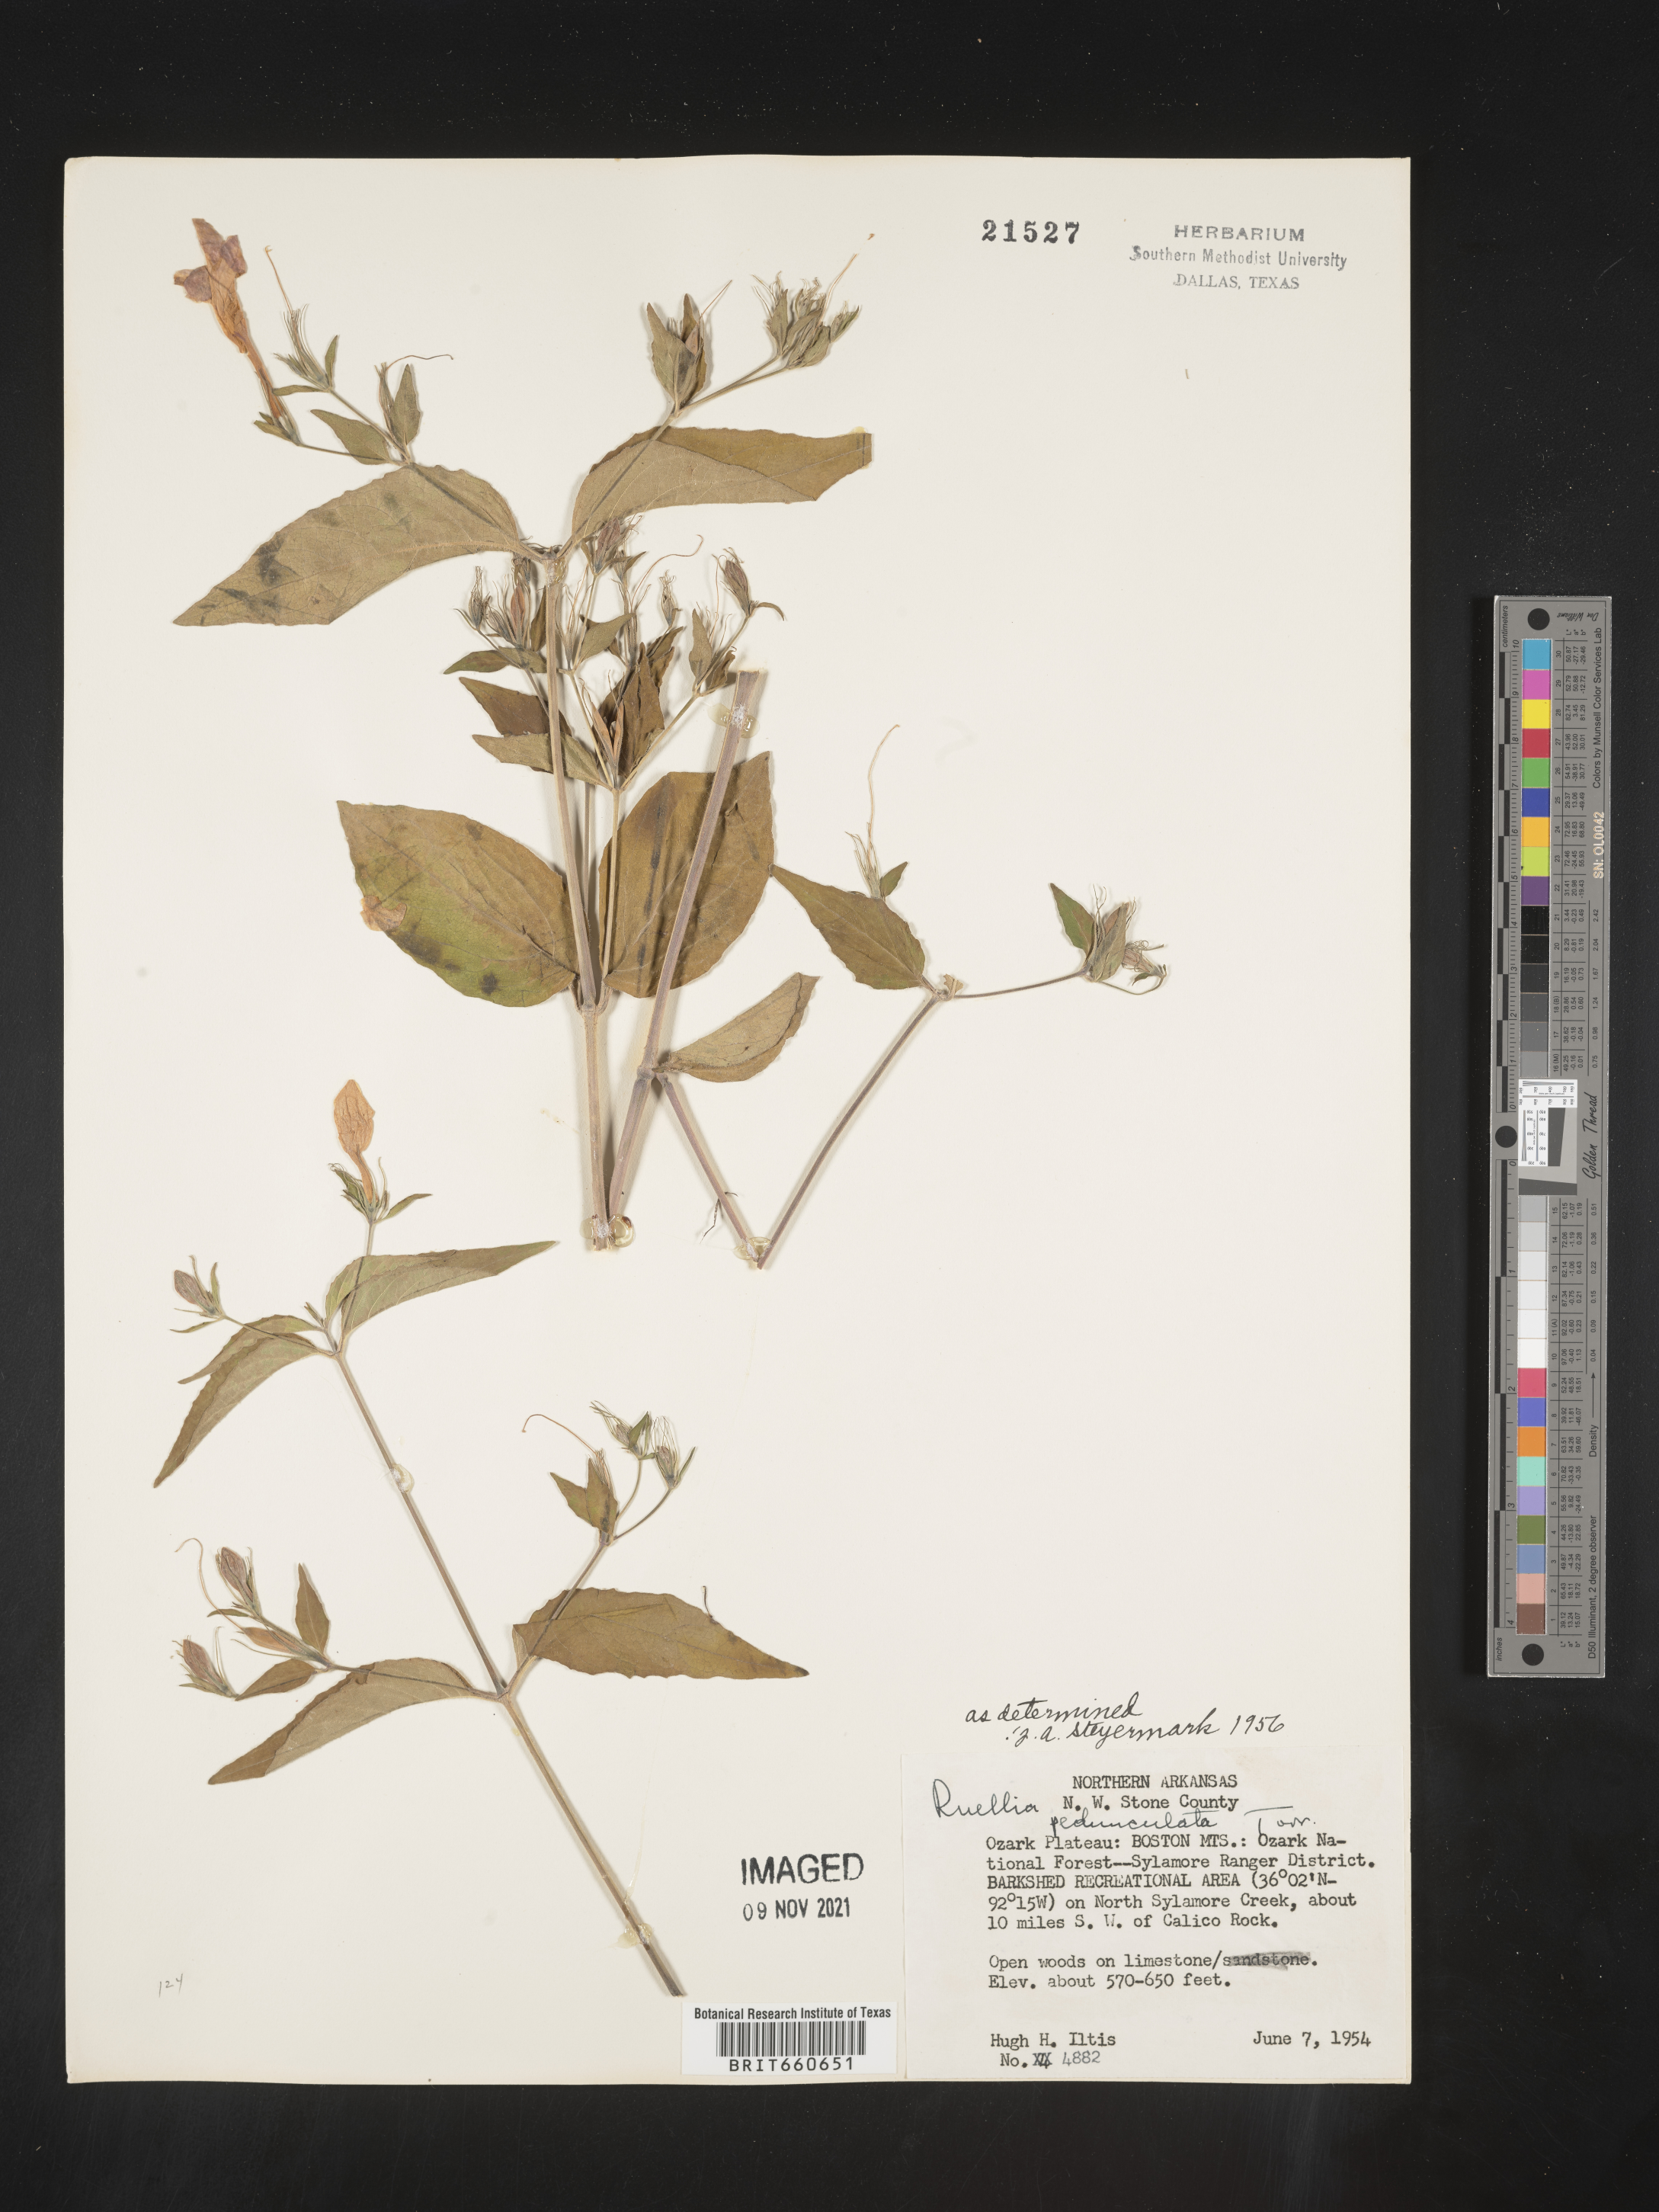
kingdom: Plantae
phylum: Tracheophyta
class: Magnoliopsida
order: Lamiales
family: Acanthaceae
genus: Ruellia
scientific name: Ruellia pedunculata
